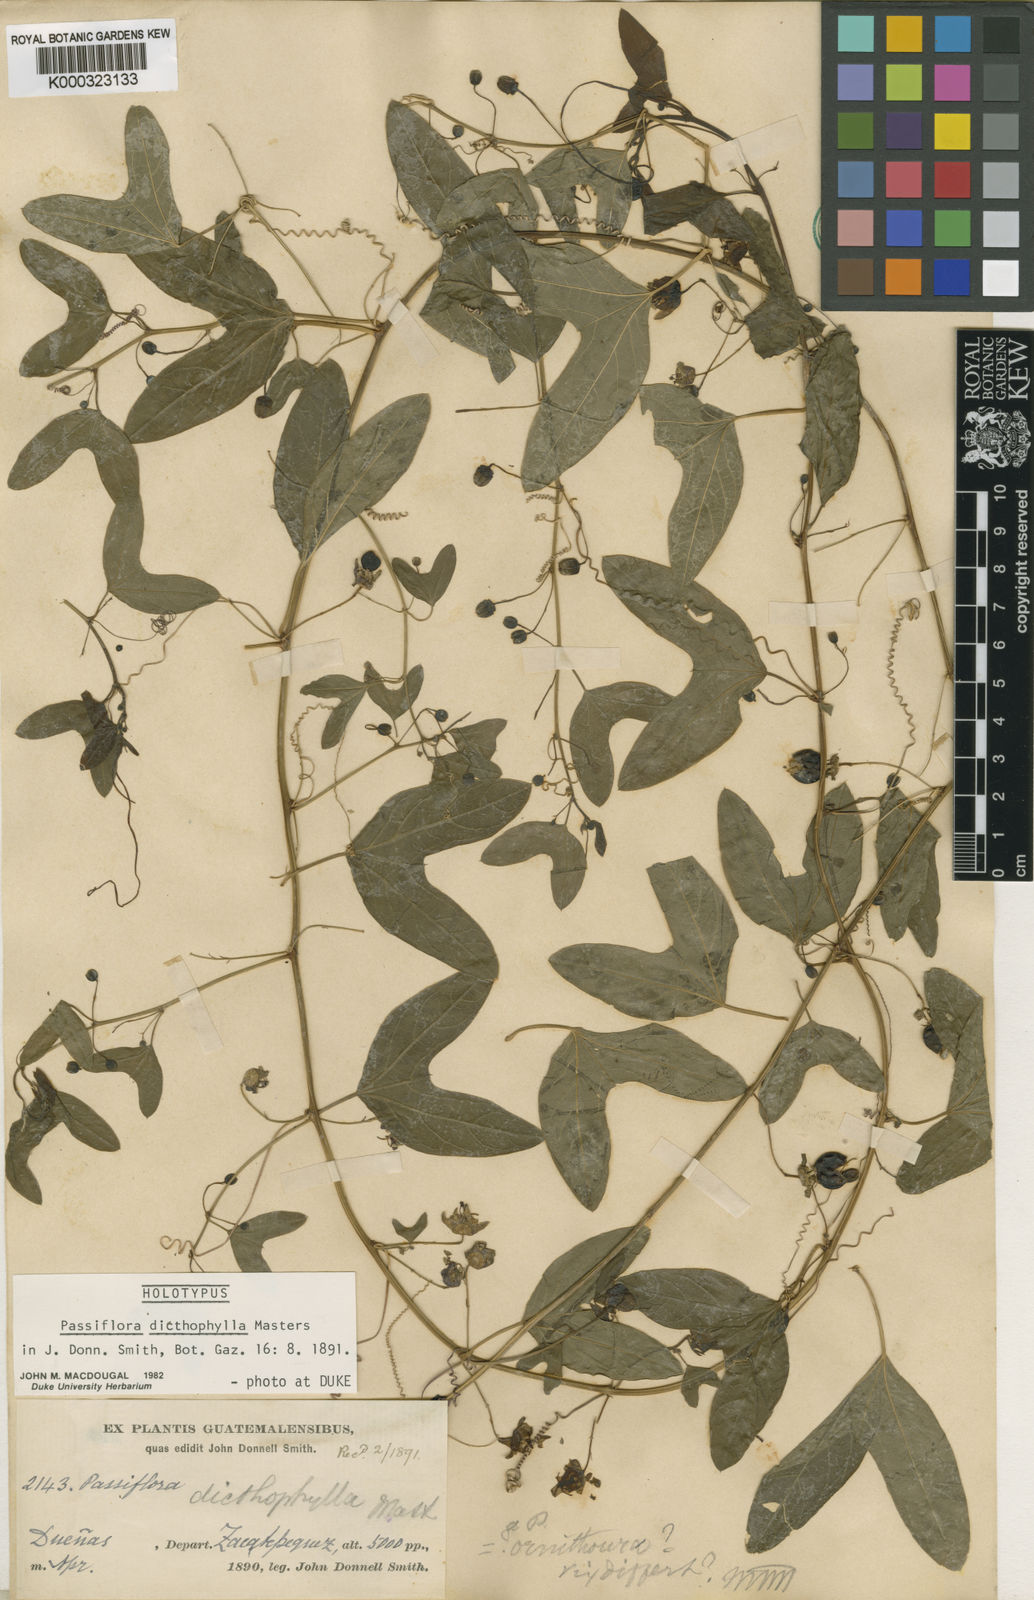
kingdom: Plantae
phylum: Tracheophyta
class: Magnoliopsida
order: Malpighiales
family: Passifloraceae
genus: Passiflora
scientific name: Passiflora ornithoura
